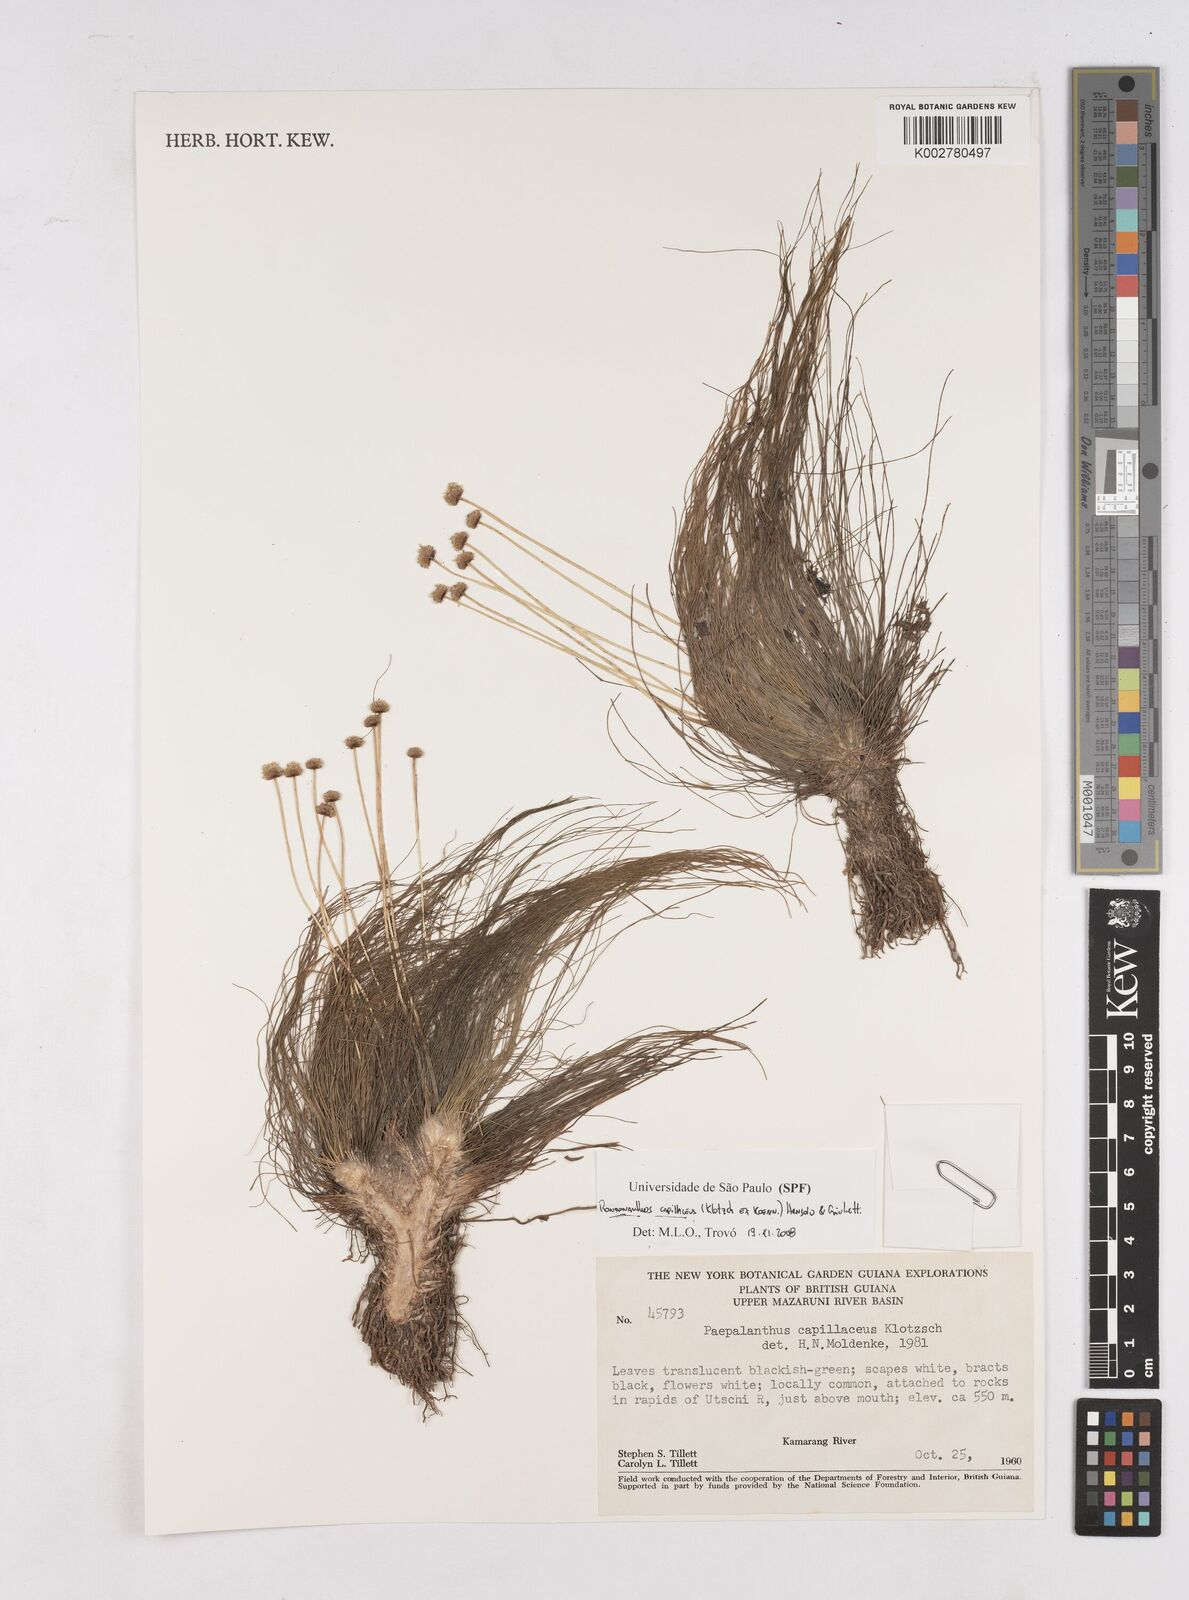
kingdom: Plantae
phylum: Tracheophyta
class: Liliopsida
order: Poales
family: Eriocaulaceae
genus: Rondonanthus
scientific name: Rondonanthus capillaceus
